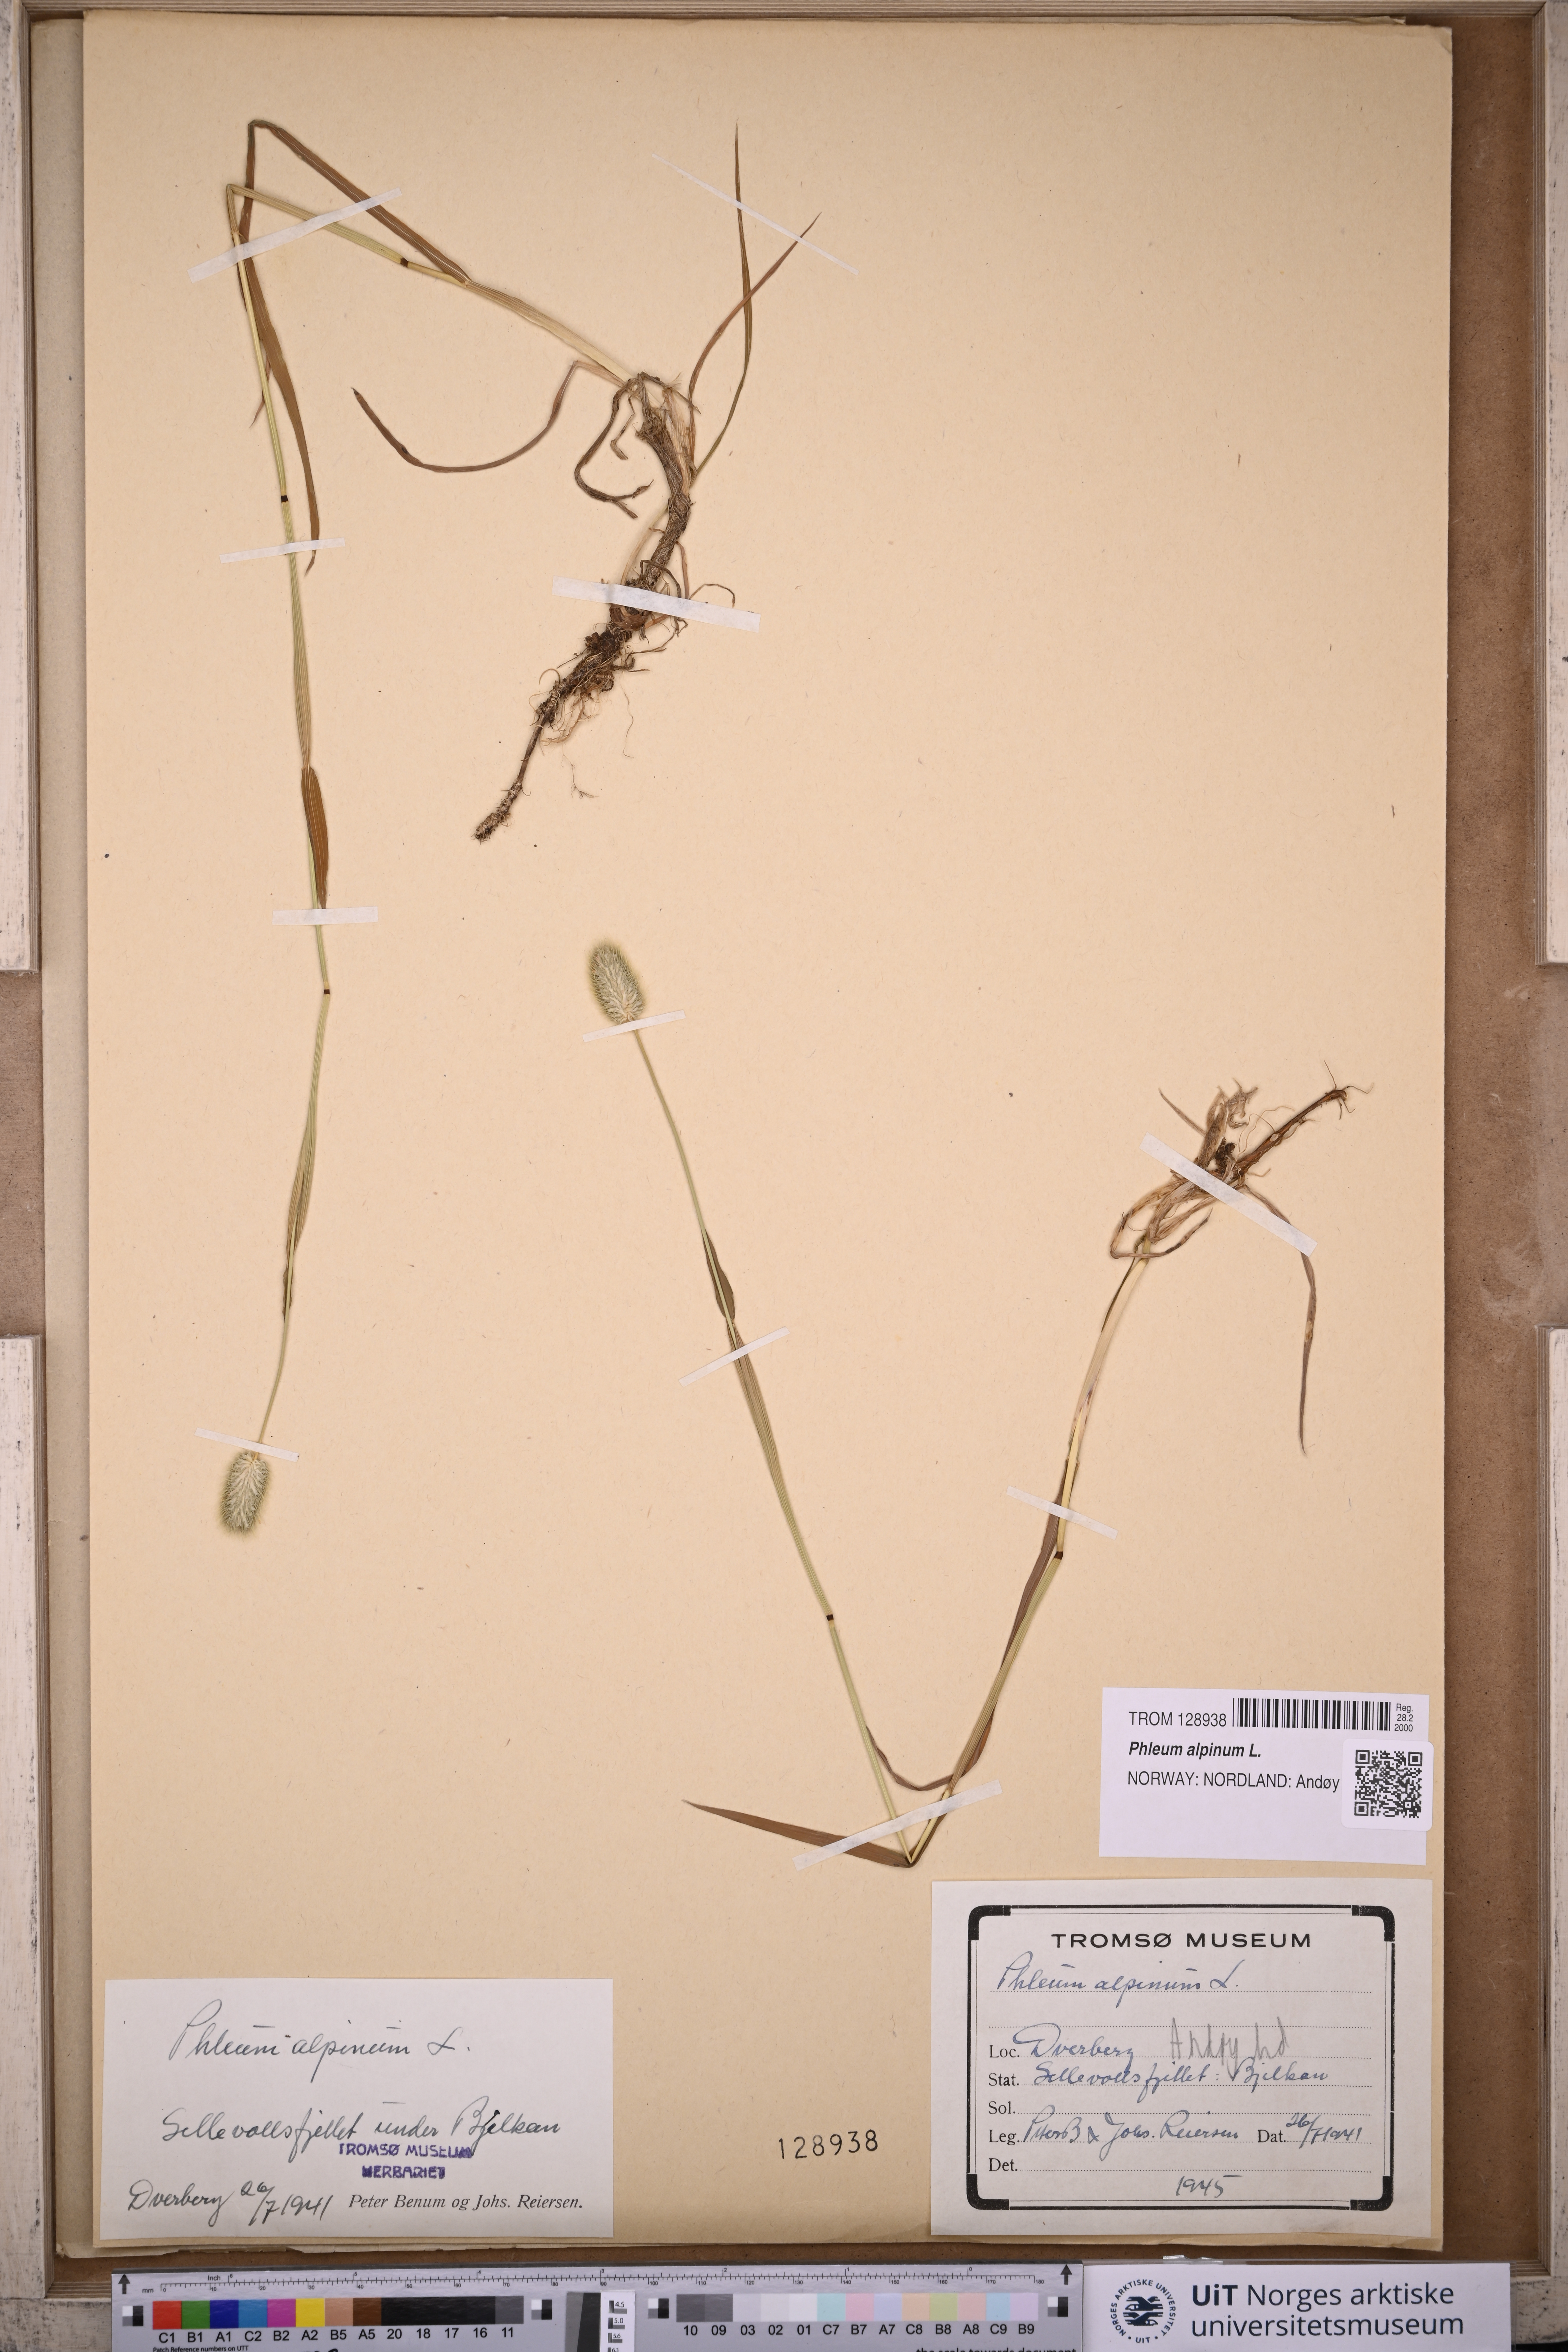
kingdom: Plantae
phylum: Tracheophyta
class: Liliopsida
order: Poales
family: Poaceae
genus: Phleum
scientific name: Phleum alpinum
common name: Alpine cat's-tail
